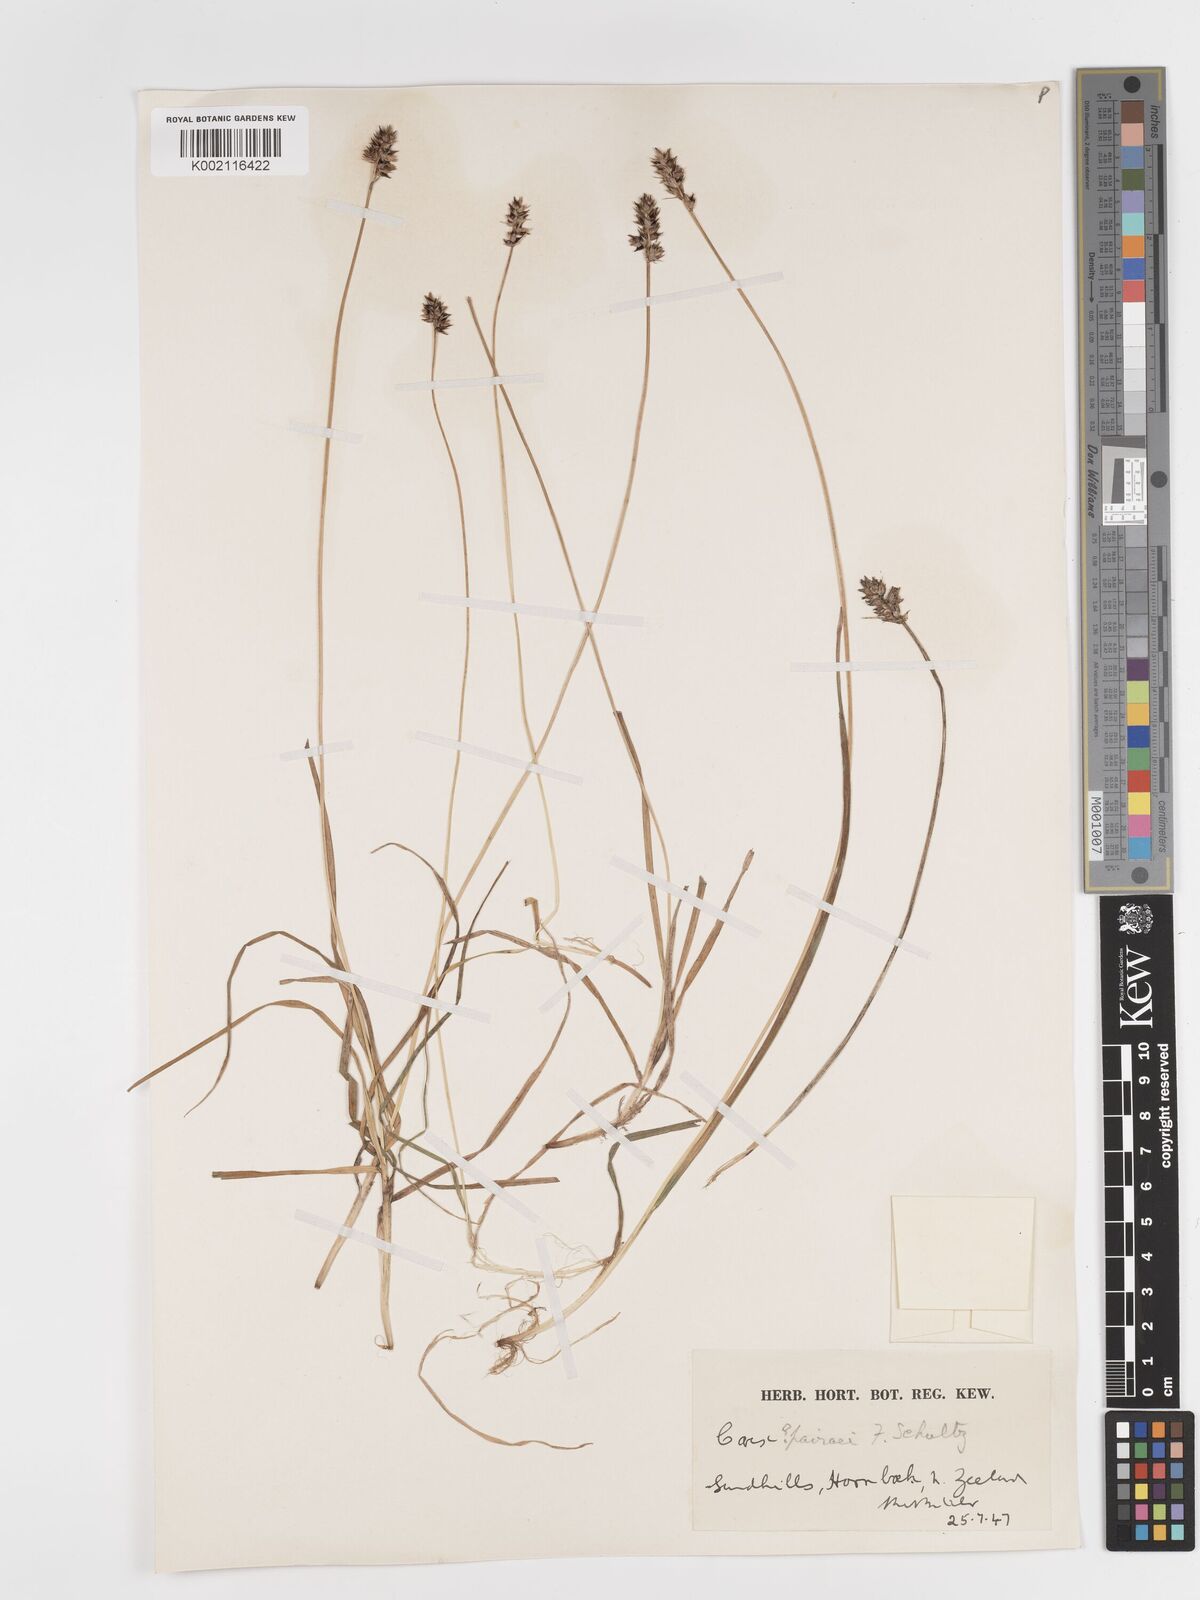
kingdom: Plantae
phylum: Tracheophyta
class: Liliopsida
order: Poales
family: Cyperaceae
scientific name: Cyperaceae
